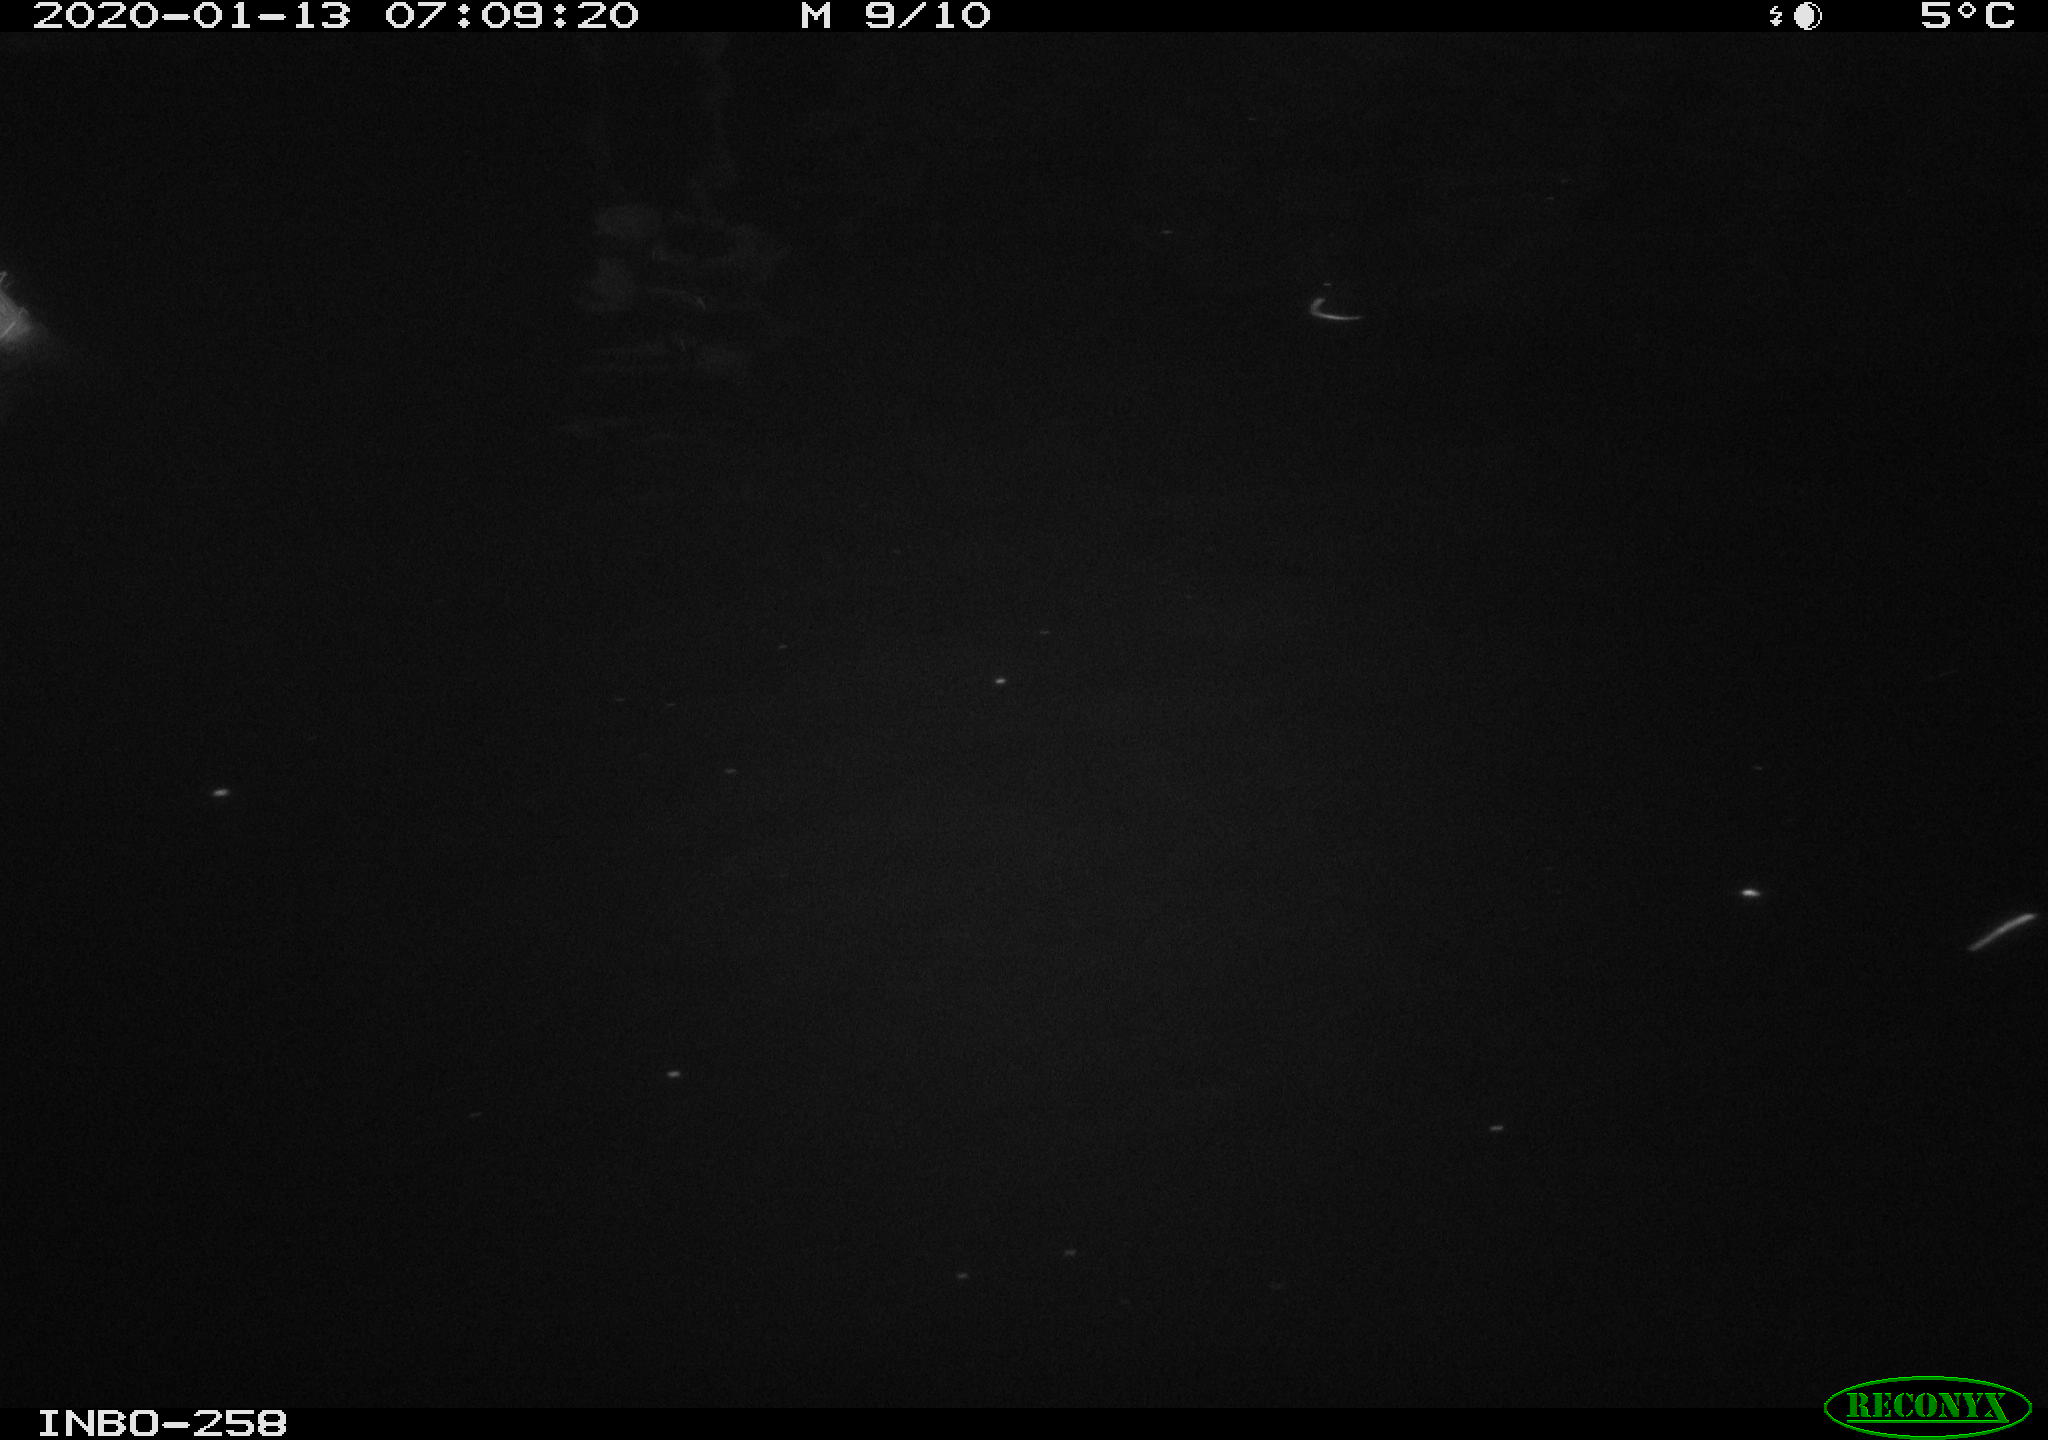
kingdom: Animalia
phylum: Chordata
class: Aves
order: Anseriformes
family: Anatidae
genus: Anas
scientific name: Anas platyrhynchos
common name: Mallard
